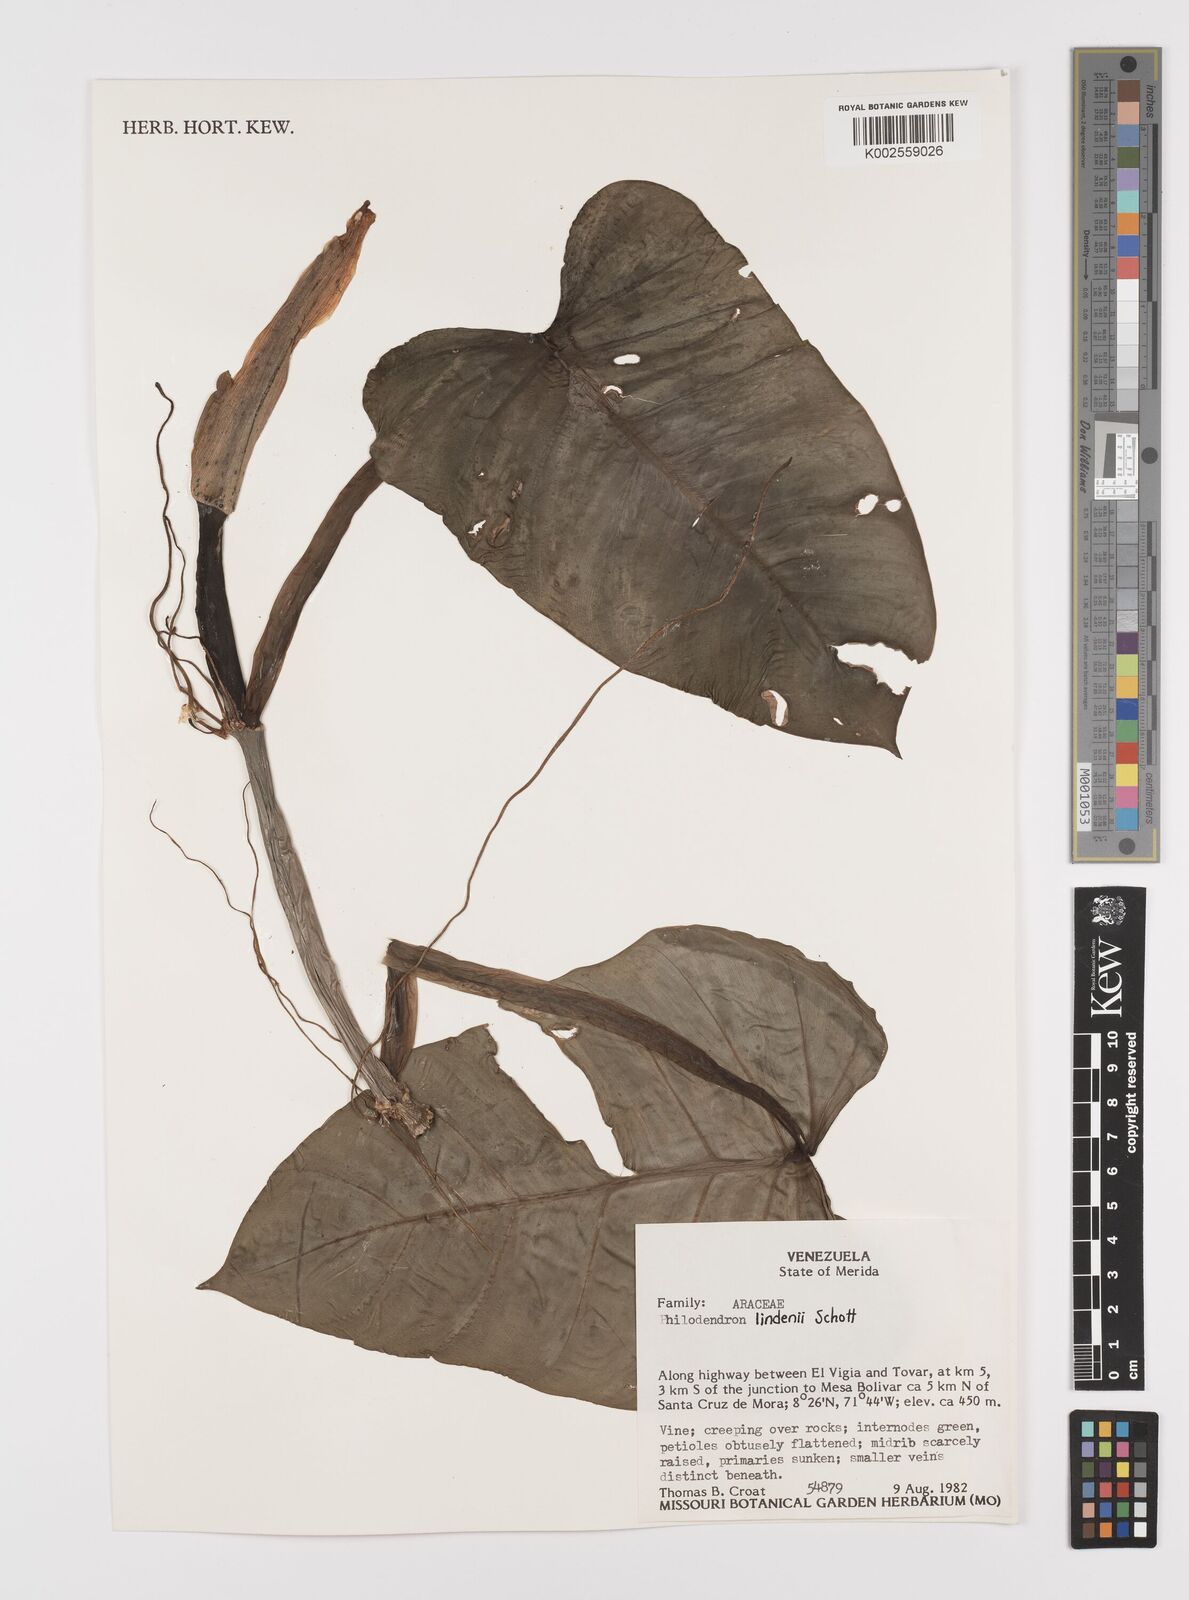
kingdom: Plantae
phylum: Tracheophyta
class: Liliopsida
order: Alismatales
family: Araceae
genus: Philodendron
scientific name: Philodendron lindenii
